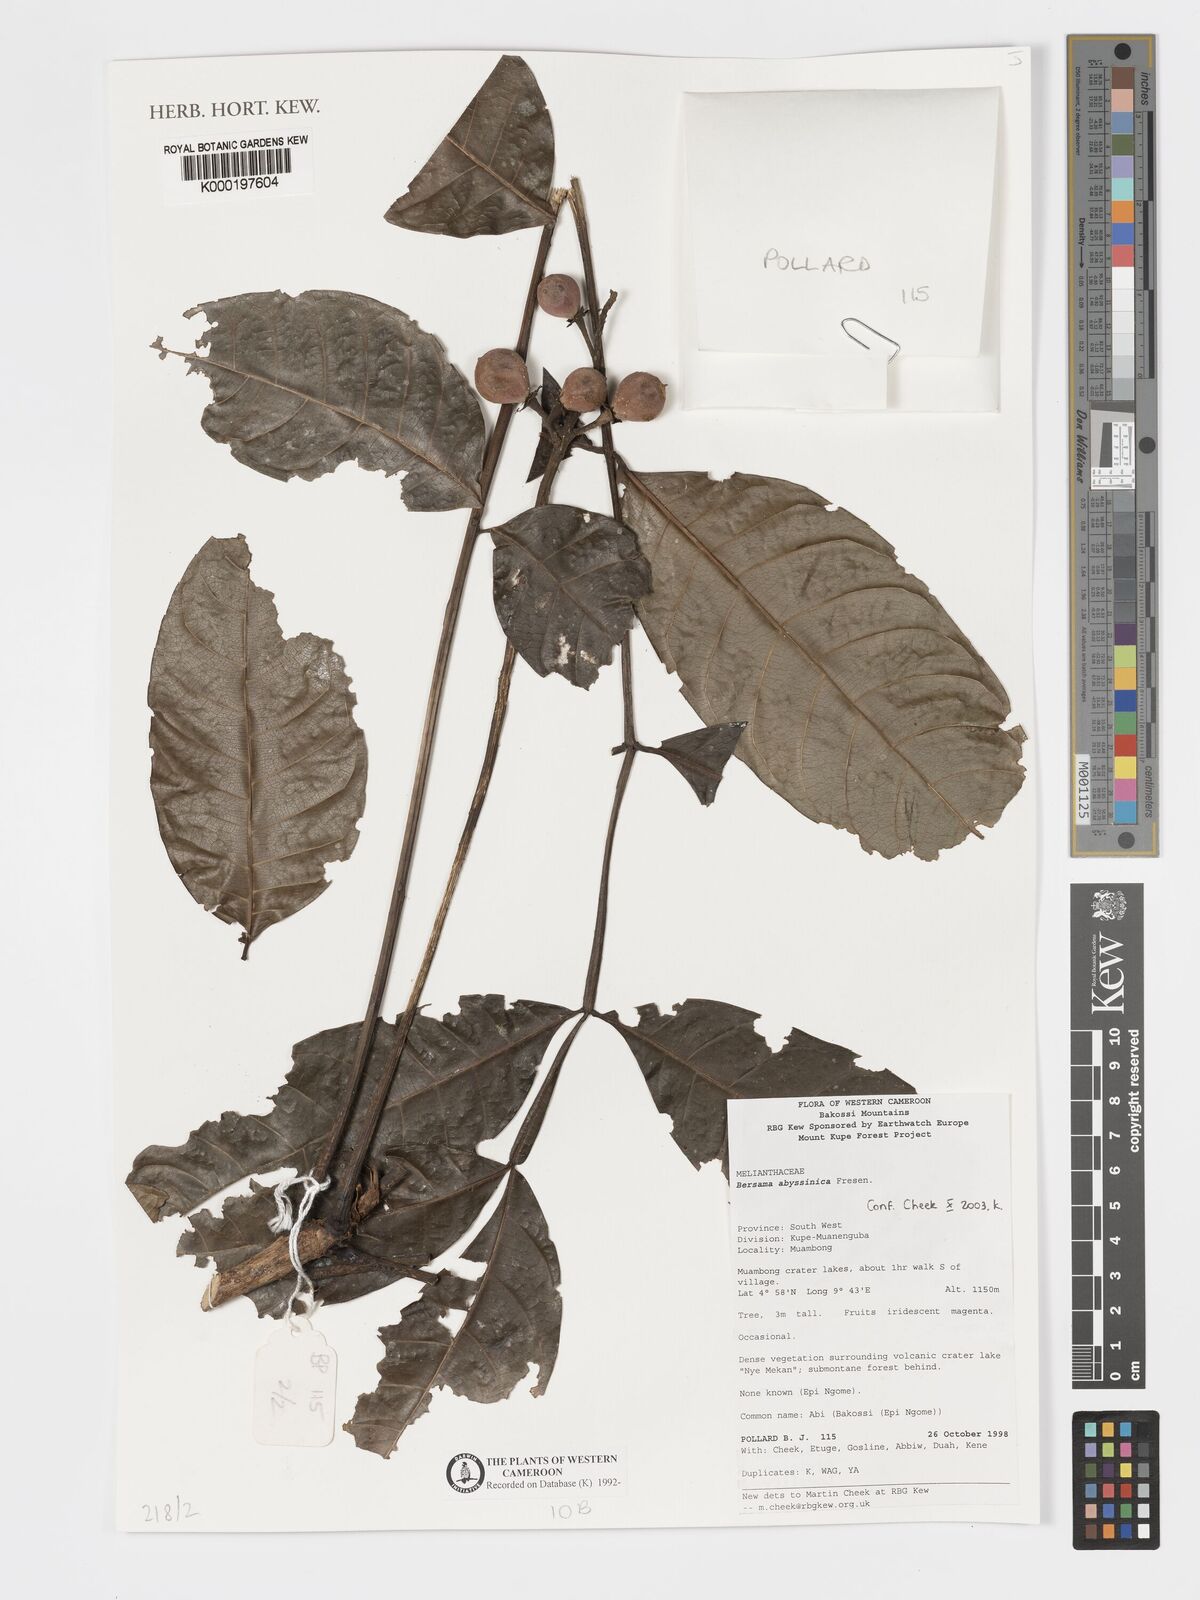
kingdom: Plantae
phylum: Tracheophyta
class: Magnoliopsida
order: Geraniales
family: Melianthaceae
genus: Bersama
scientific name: Bersama abyssinica
